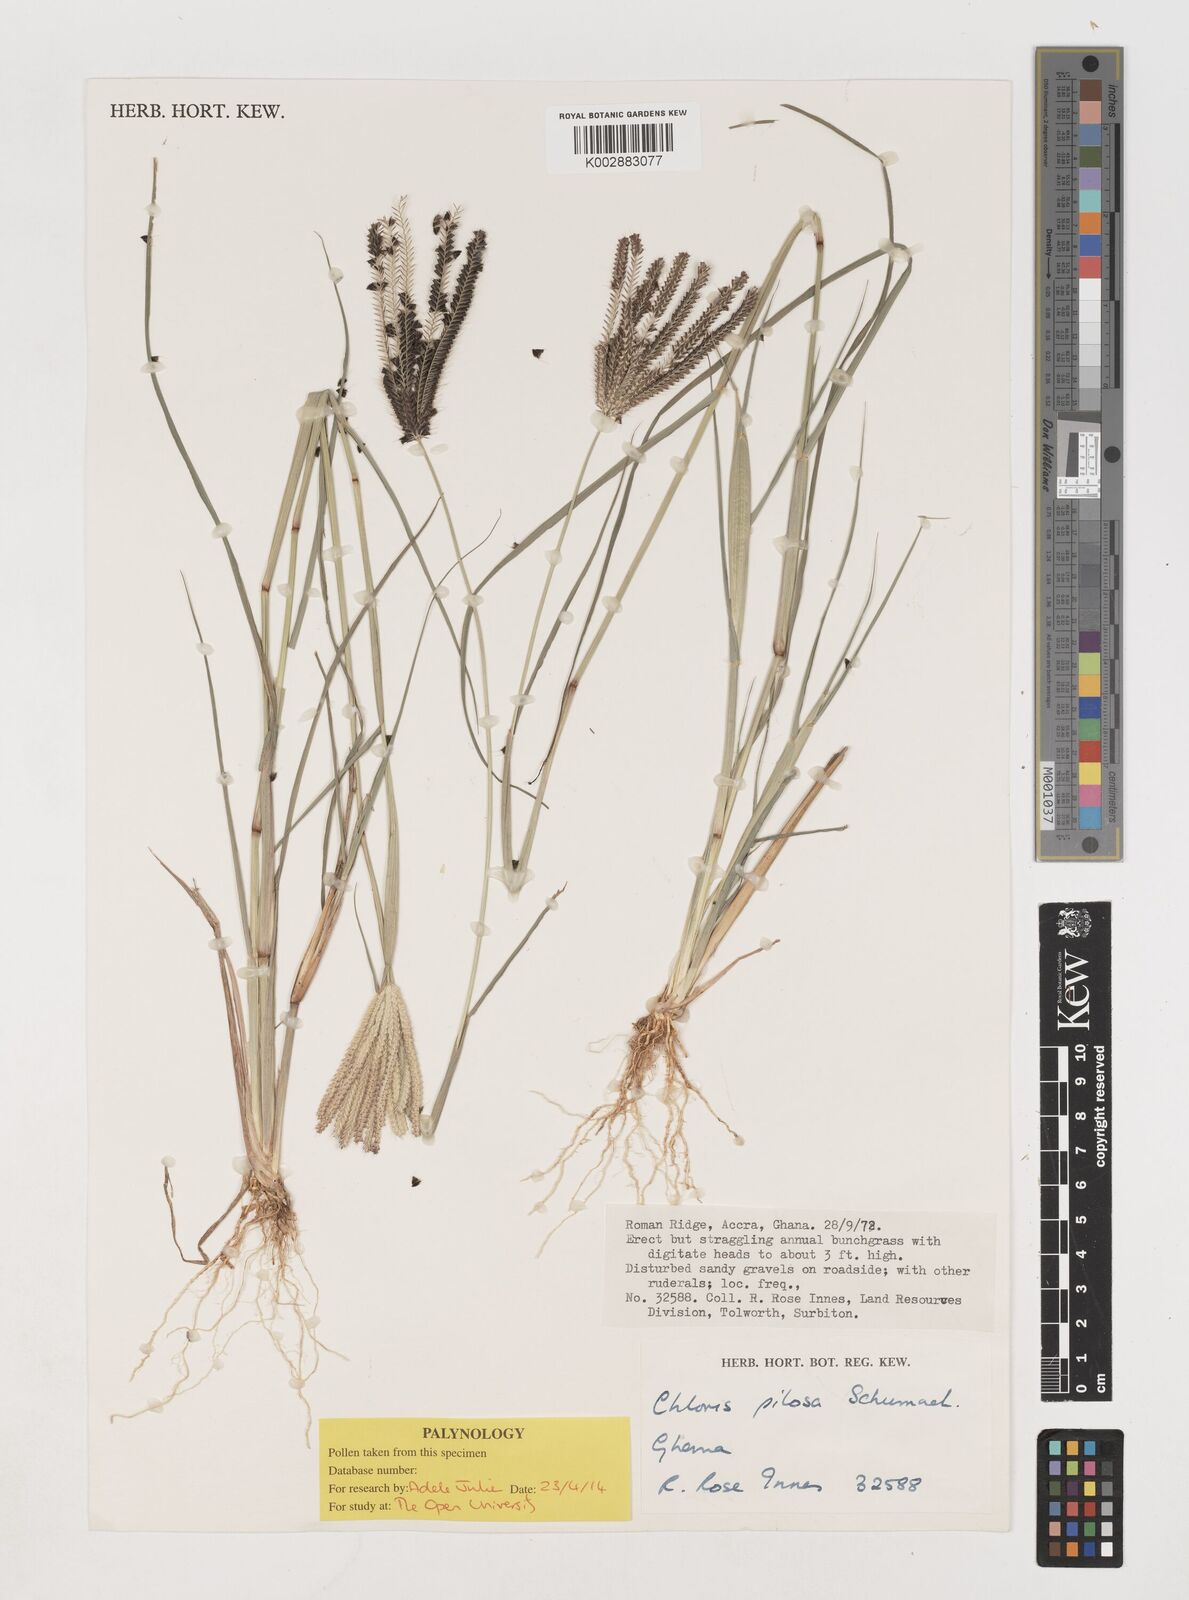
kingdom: Plantae
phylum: Tracheophyta
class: Liliopsida
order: Poales
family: Poaceae
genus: Chloris
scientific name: Chloris pilosa
